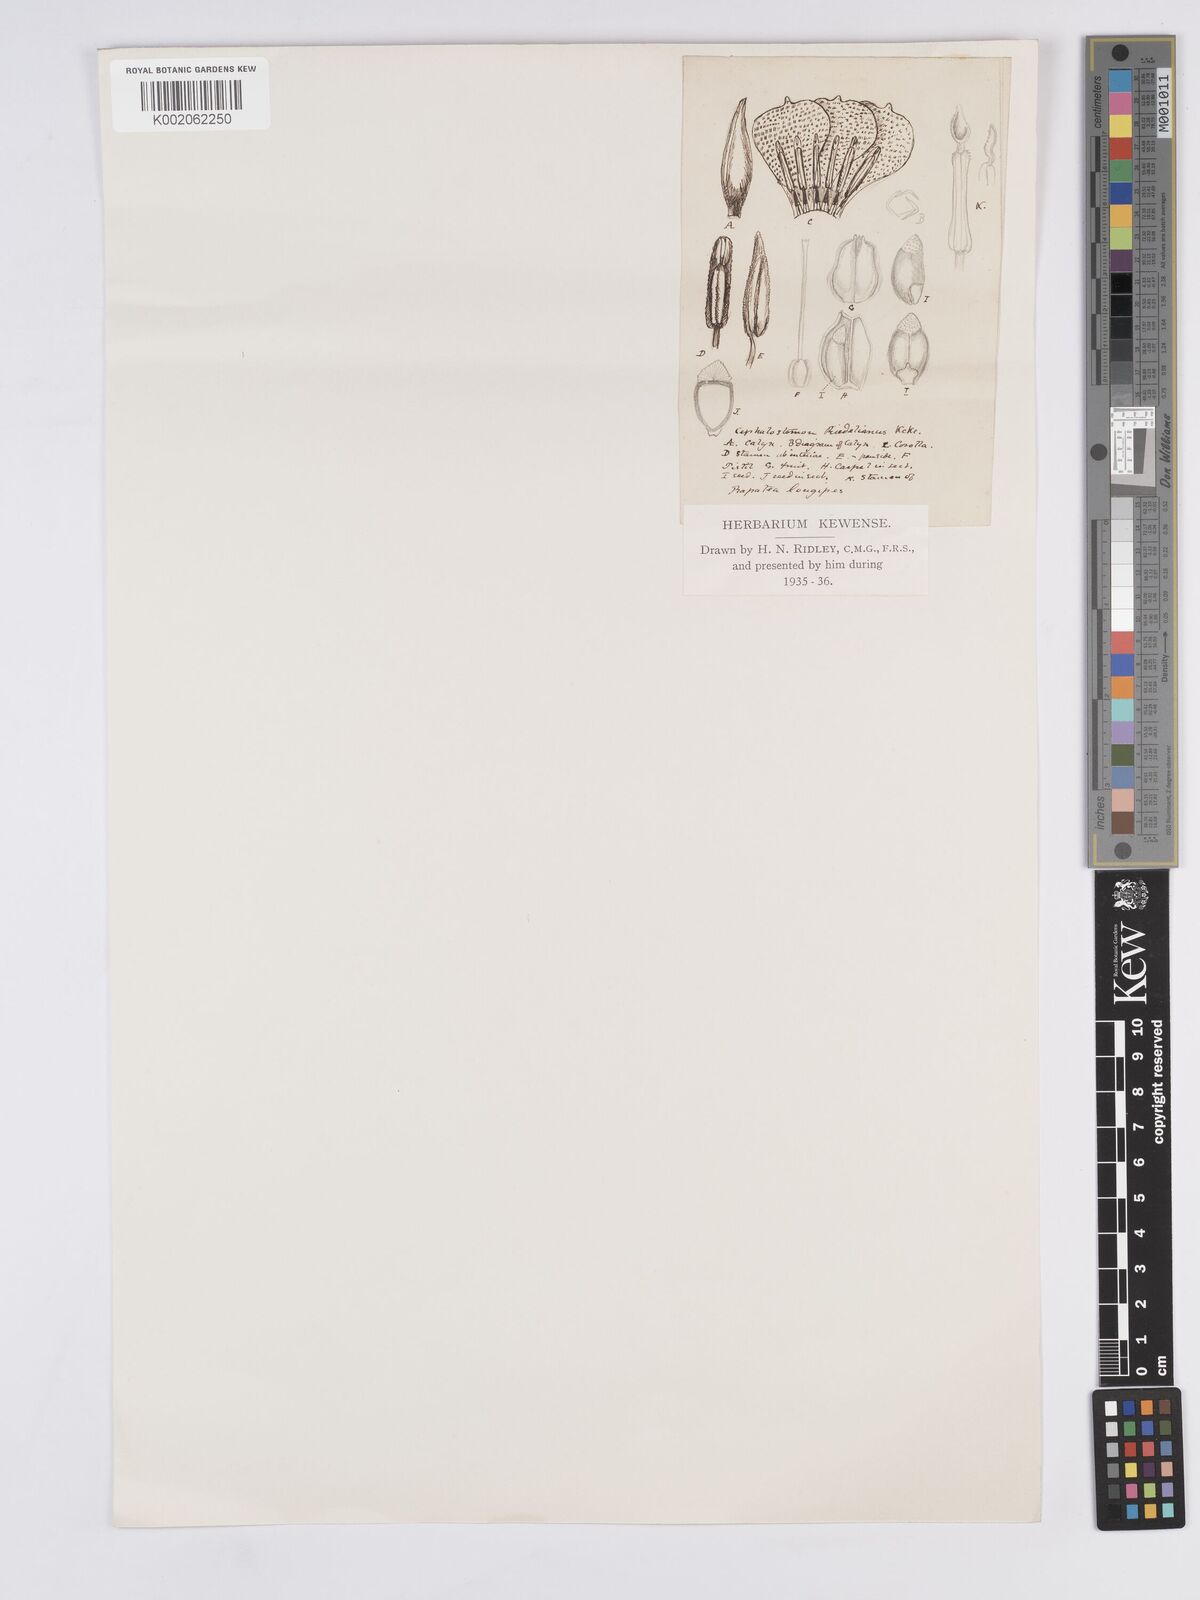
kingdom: Plantae
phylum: Tracheophyta
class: Liliopsida
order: Poales
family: Rapateaceae
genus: Cephalostemon
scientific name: Cephalostemon
